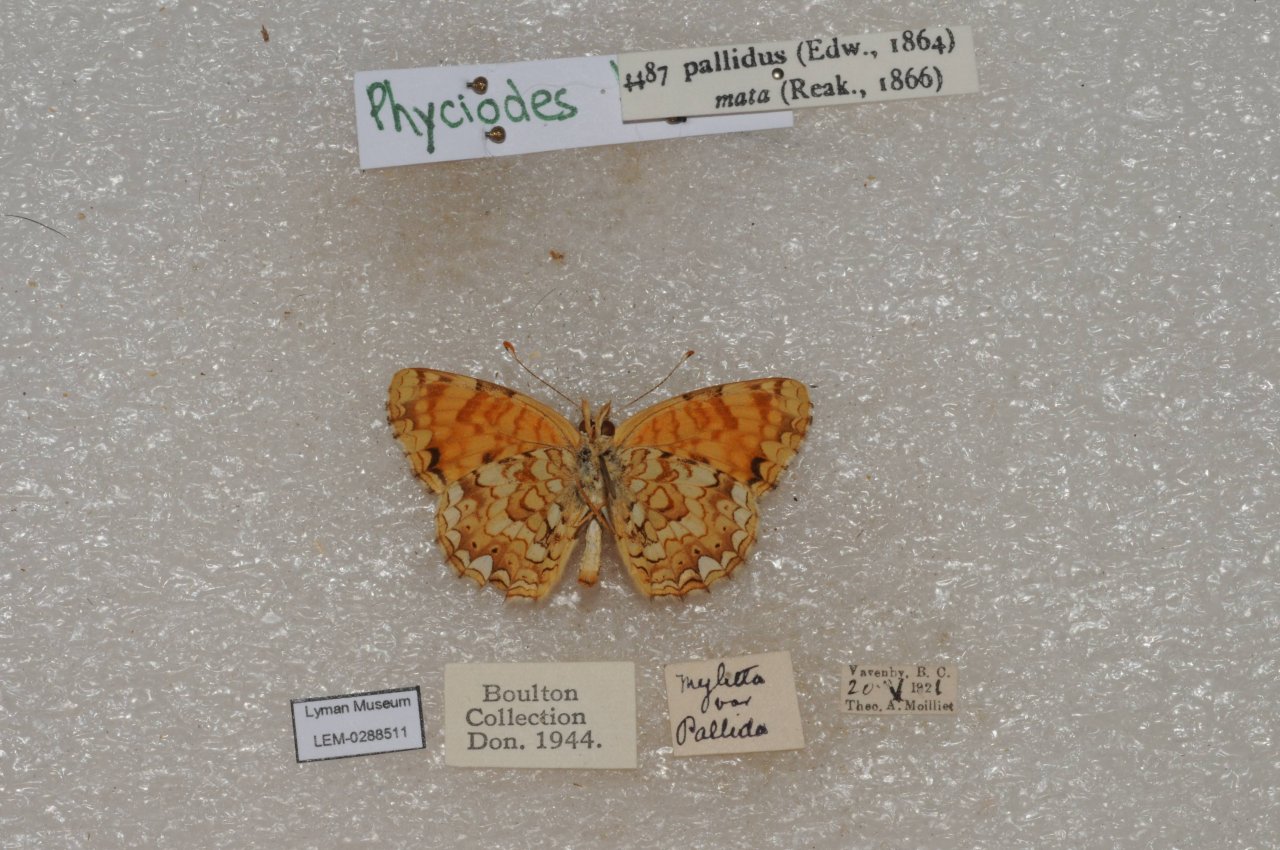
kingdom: Animalia
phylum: Arthropoda
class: Insecta
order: Lepidoptera
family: Nymphalidae
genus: Phyciodes
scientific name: Phyciodes pallida
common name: Pale Crescent
